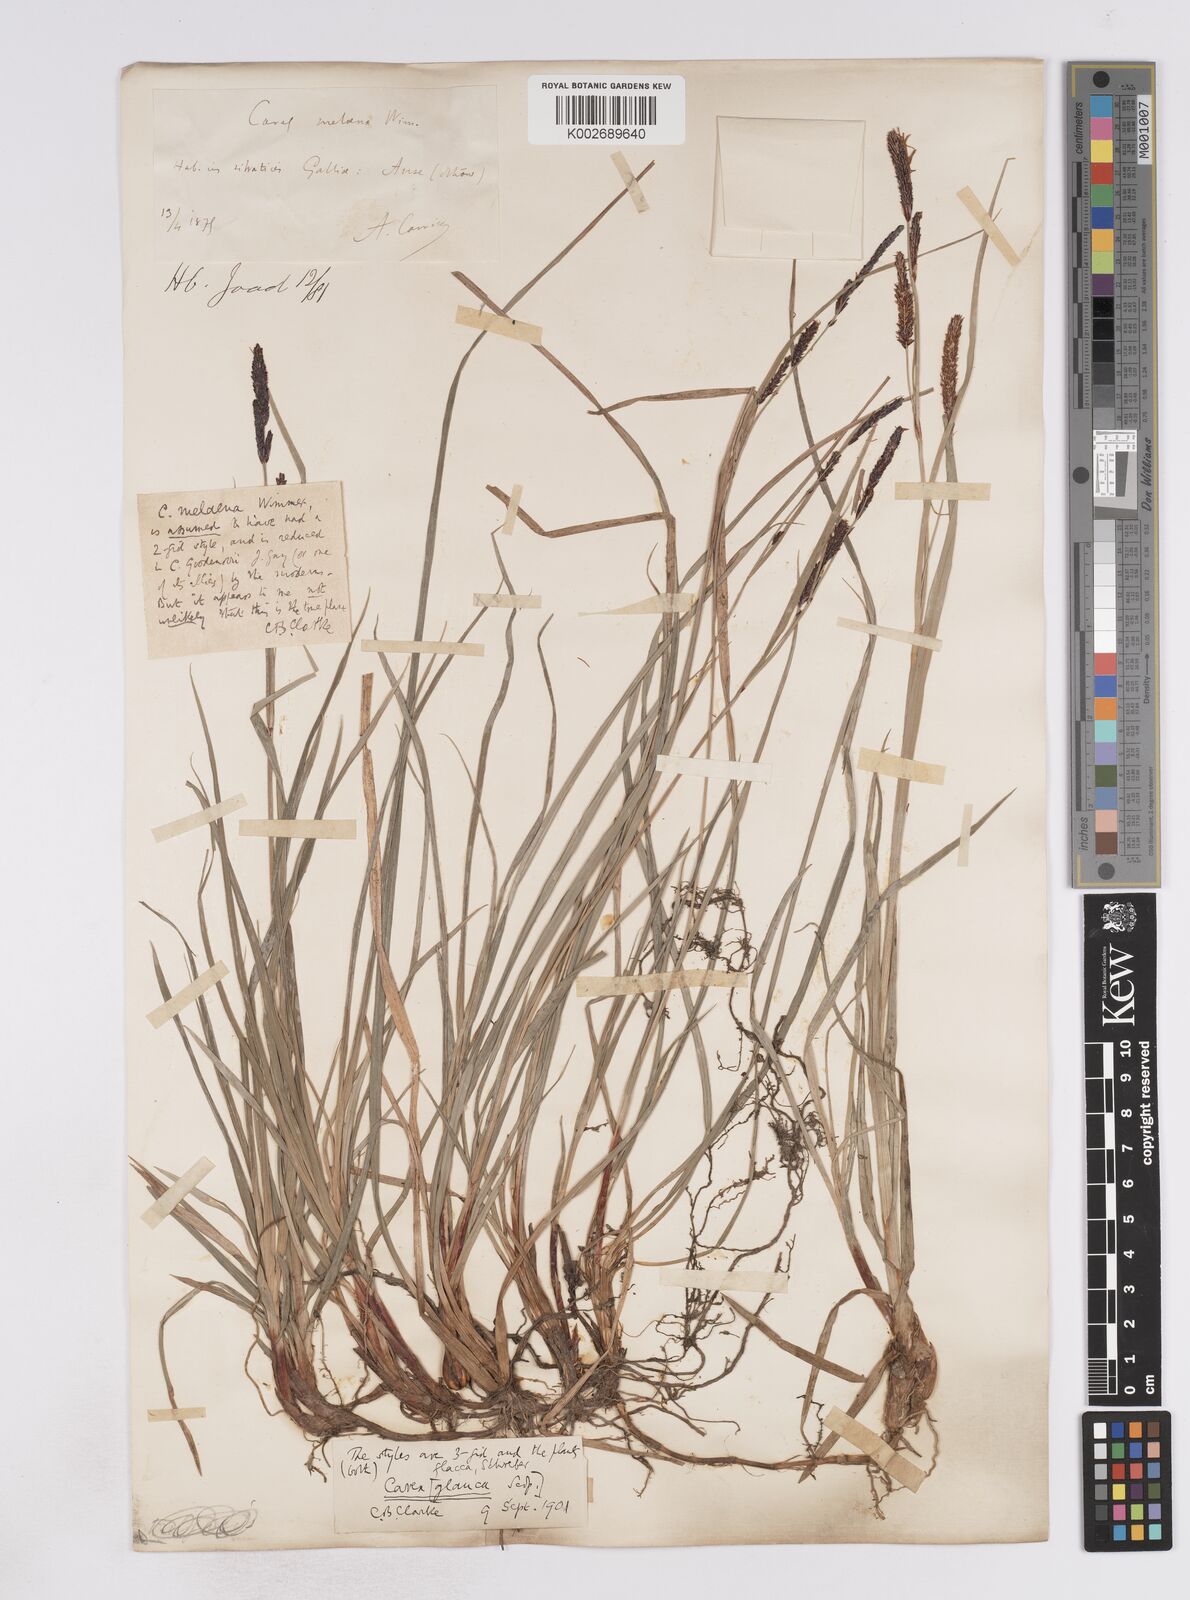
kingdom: Plantae
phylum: Tracheophyta
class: Liliopsida
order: Poales
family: Cyperaceae
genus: Carex
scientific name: Carex flacca
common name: Glaucous sedge
